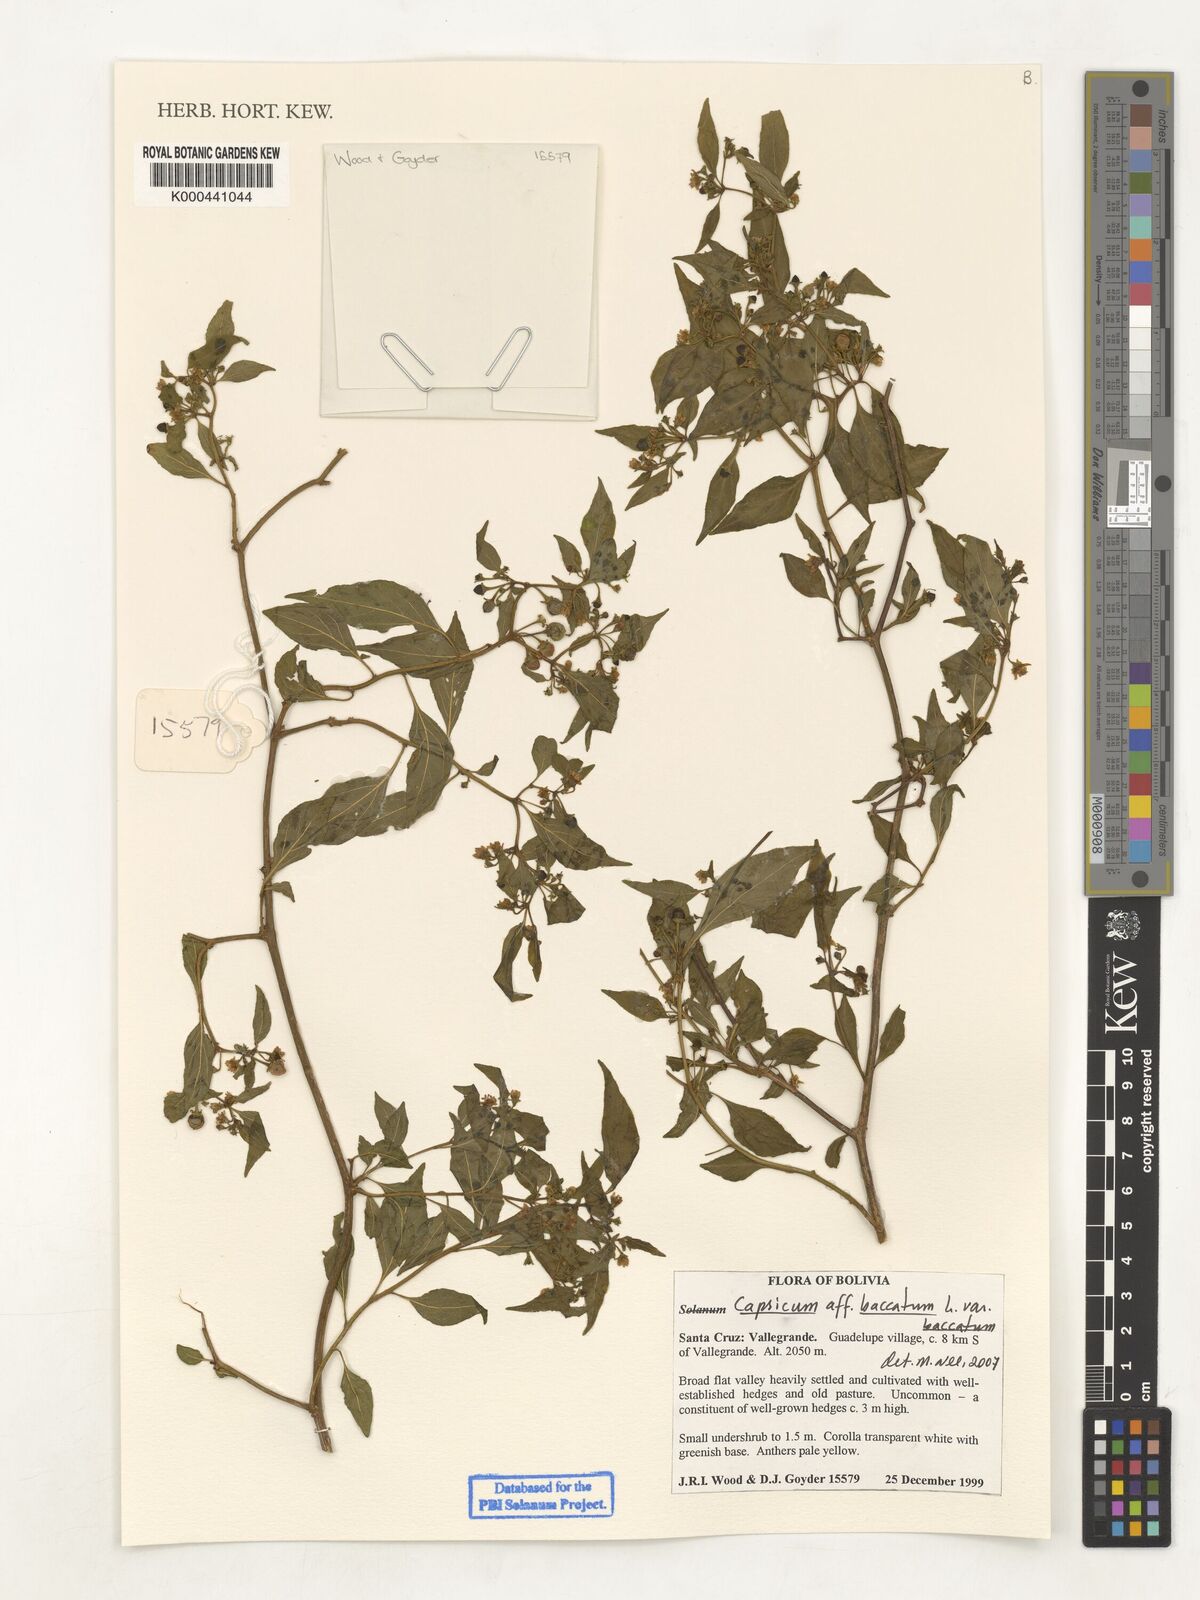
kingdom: Plantae
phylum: Tracheophyta
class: Magnoliopsida
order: Solanales
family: Solanaceae
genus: Capsicum
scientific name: Capsicum baccatum
